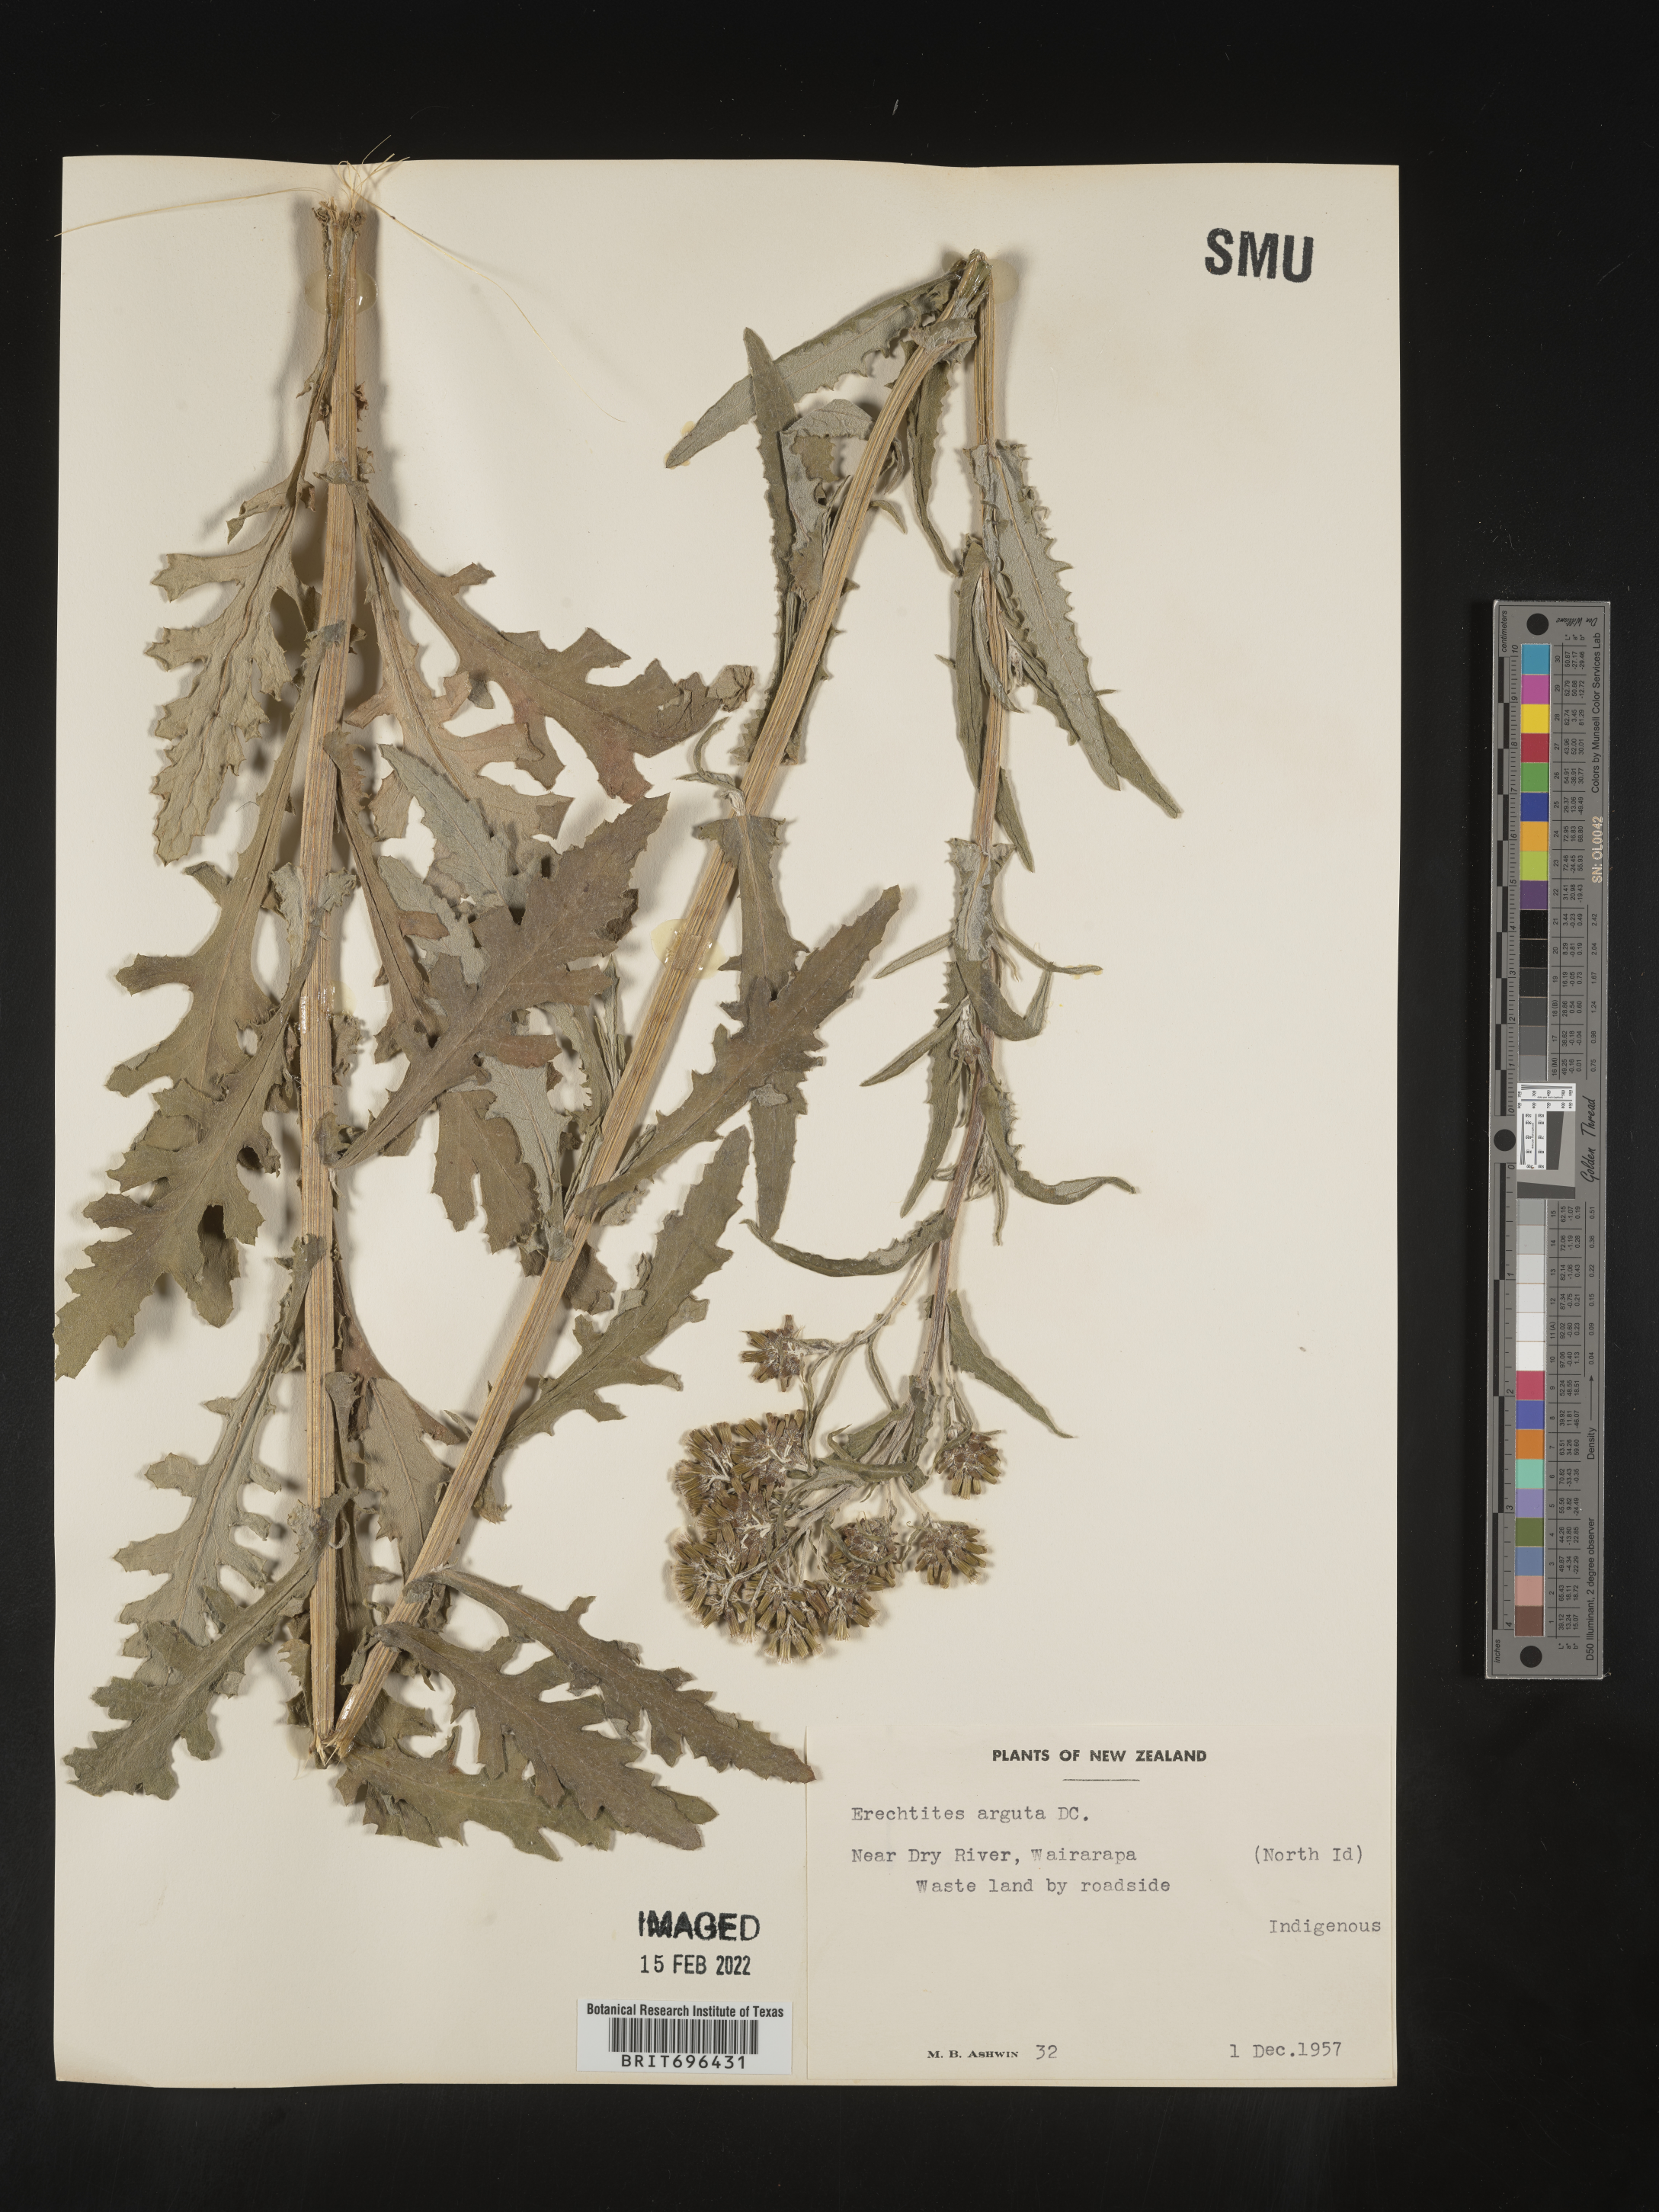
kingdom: Plantae
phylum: Tracheophyta
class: Magnoliopsida
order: Asterales
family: Asteraceae
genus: Erechtites
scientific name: Erechtites
